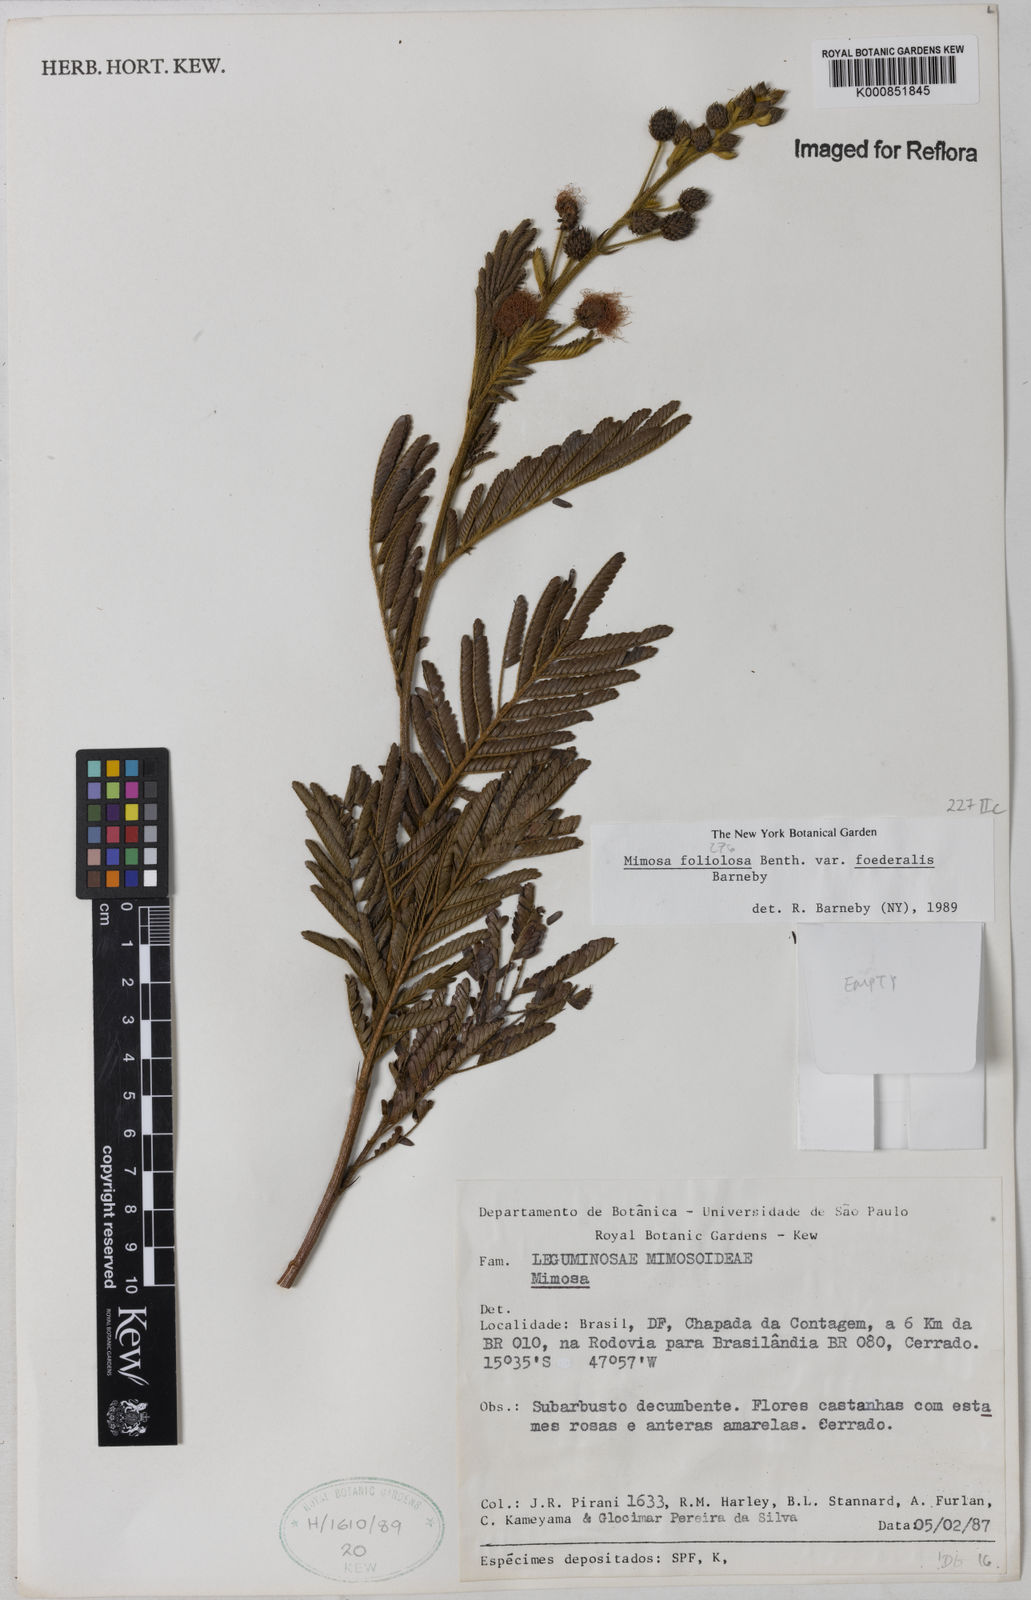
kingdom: Plantae
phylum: Tracheophyta
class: Magnoliopsida
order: Fabales
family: Fabaceae
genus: Mimosa
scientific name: Mimosa foliolosa
